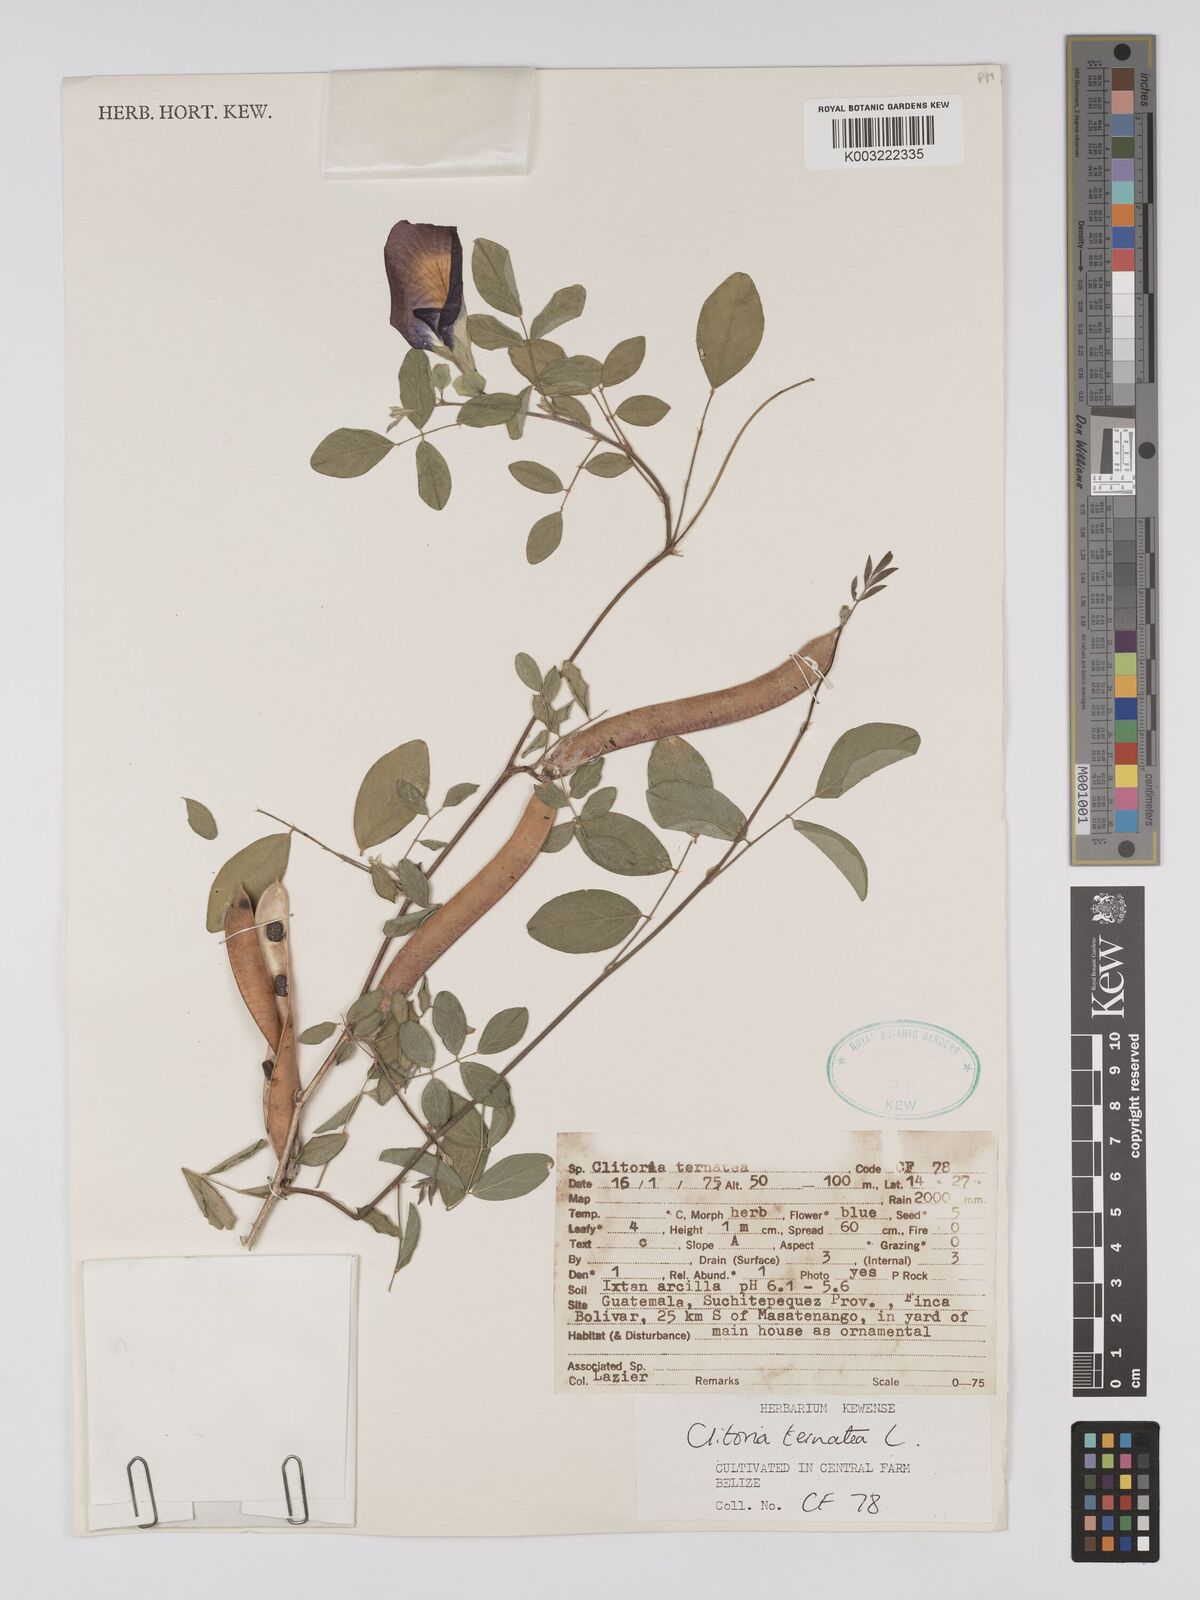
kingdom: Plantae
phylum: Tracheophyta
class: Magnoliopsida
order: Fabales
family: Fabaceae
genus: Clitoria
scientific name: Clitoria ternatea
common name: Asian pigeonwings
